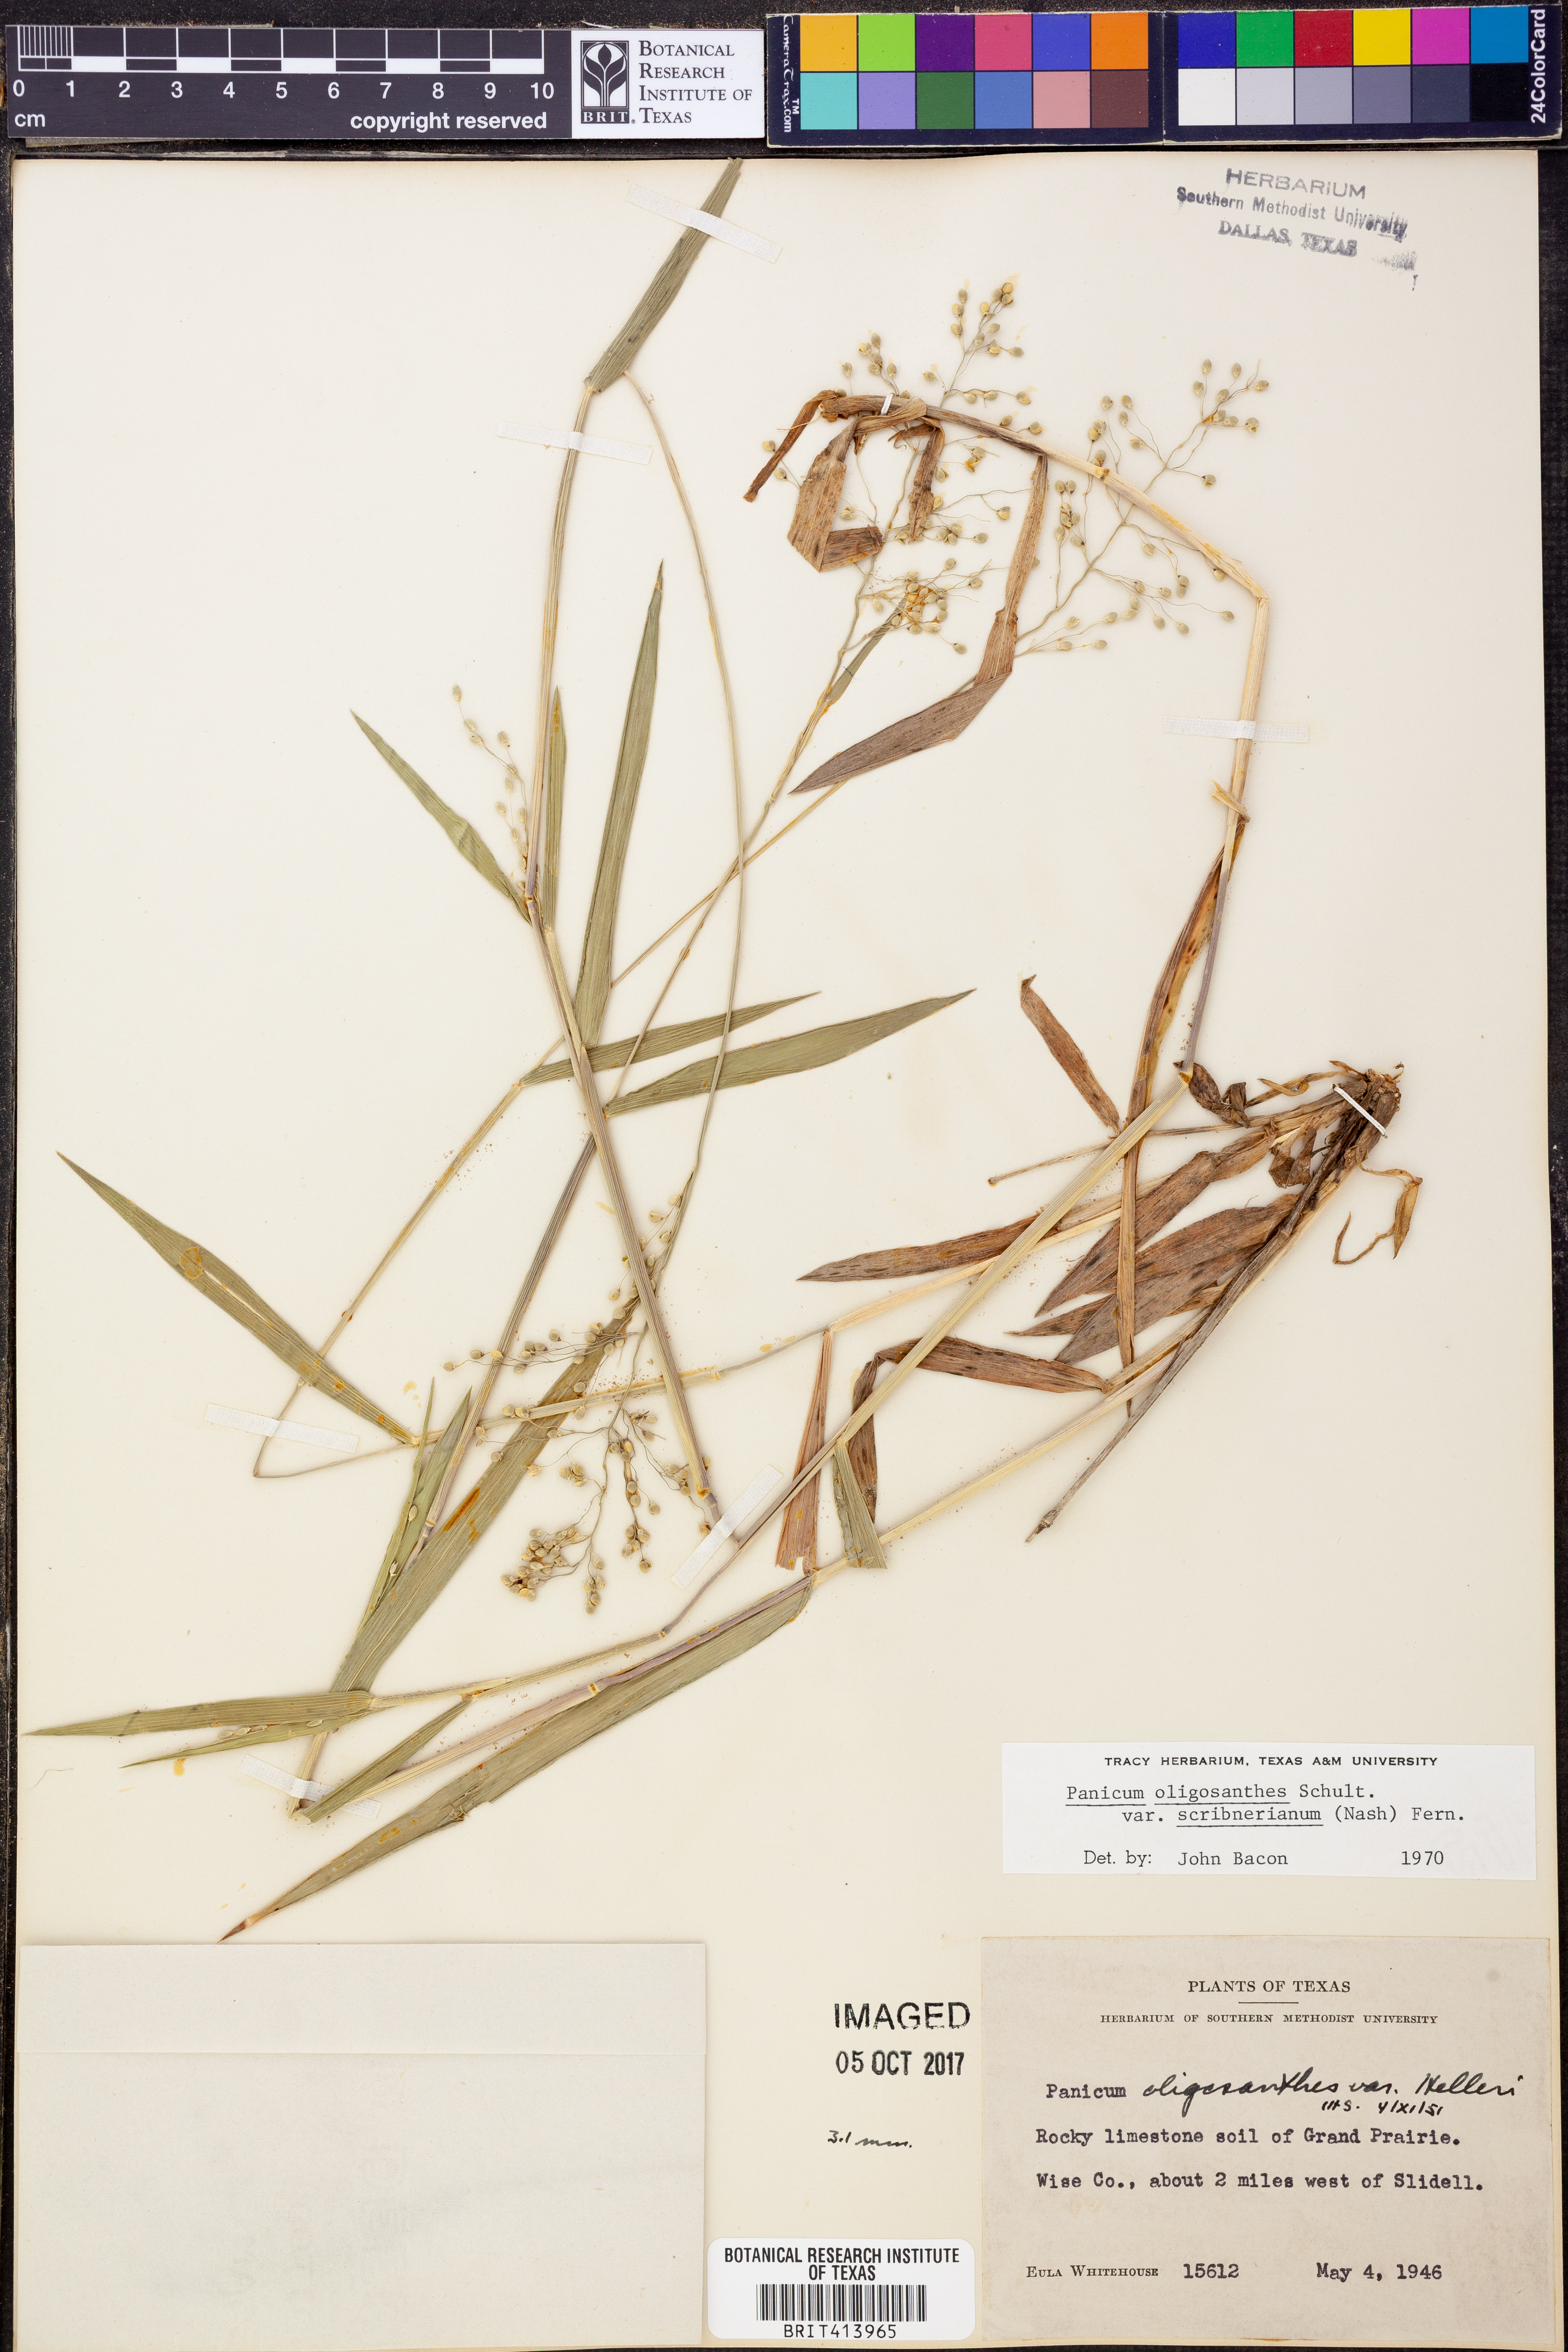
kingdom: Plantae
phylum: Tracheophyta
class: Liliopsida
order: Poales
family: Poaceae
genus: Dichanthelium
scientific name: Dichanthelium scribnerianum
